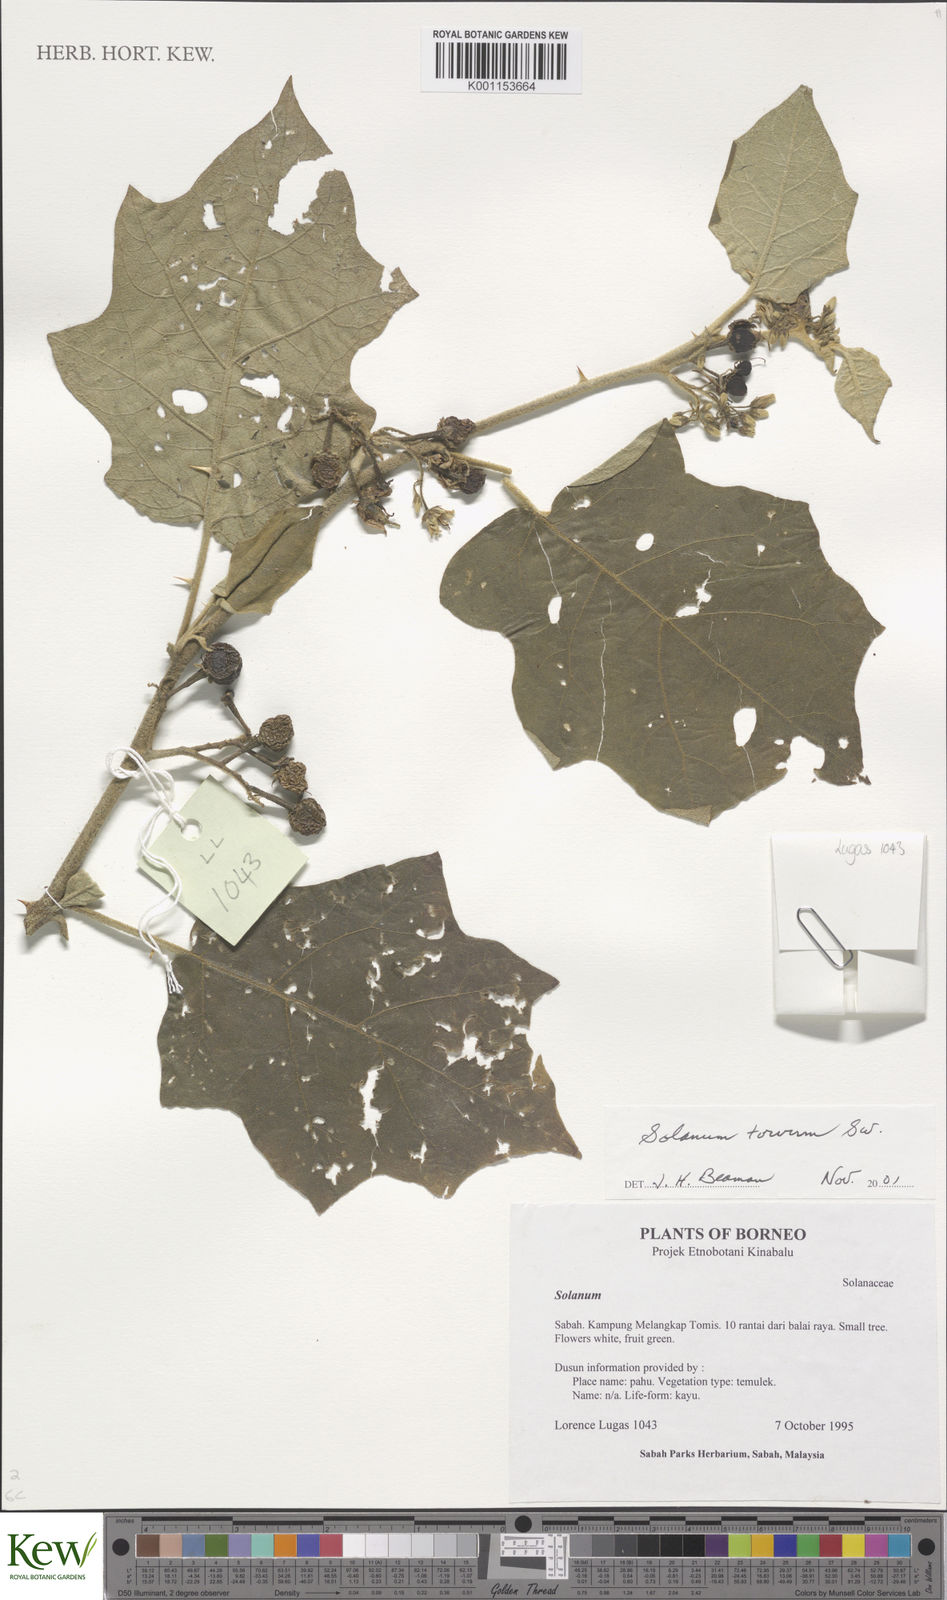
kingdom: Plantae
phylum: Tracheophyta
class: Magnoliopsida
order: Solanales
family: Solanaceae
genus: Solanum
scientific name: Solanum torvum
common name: Turkey berry
